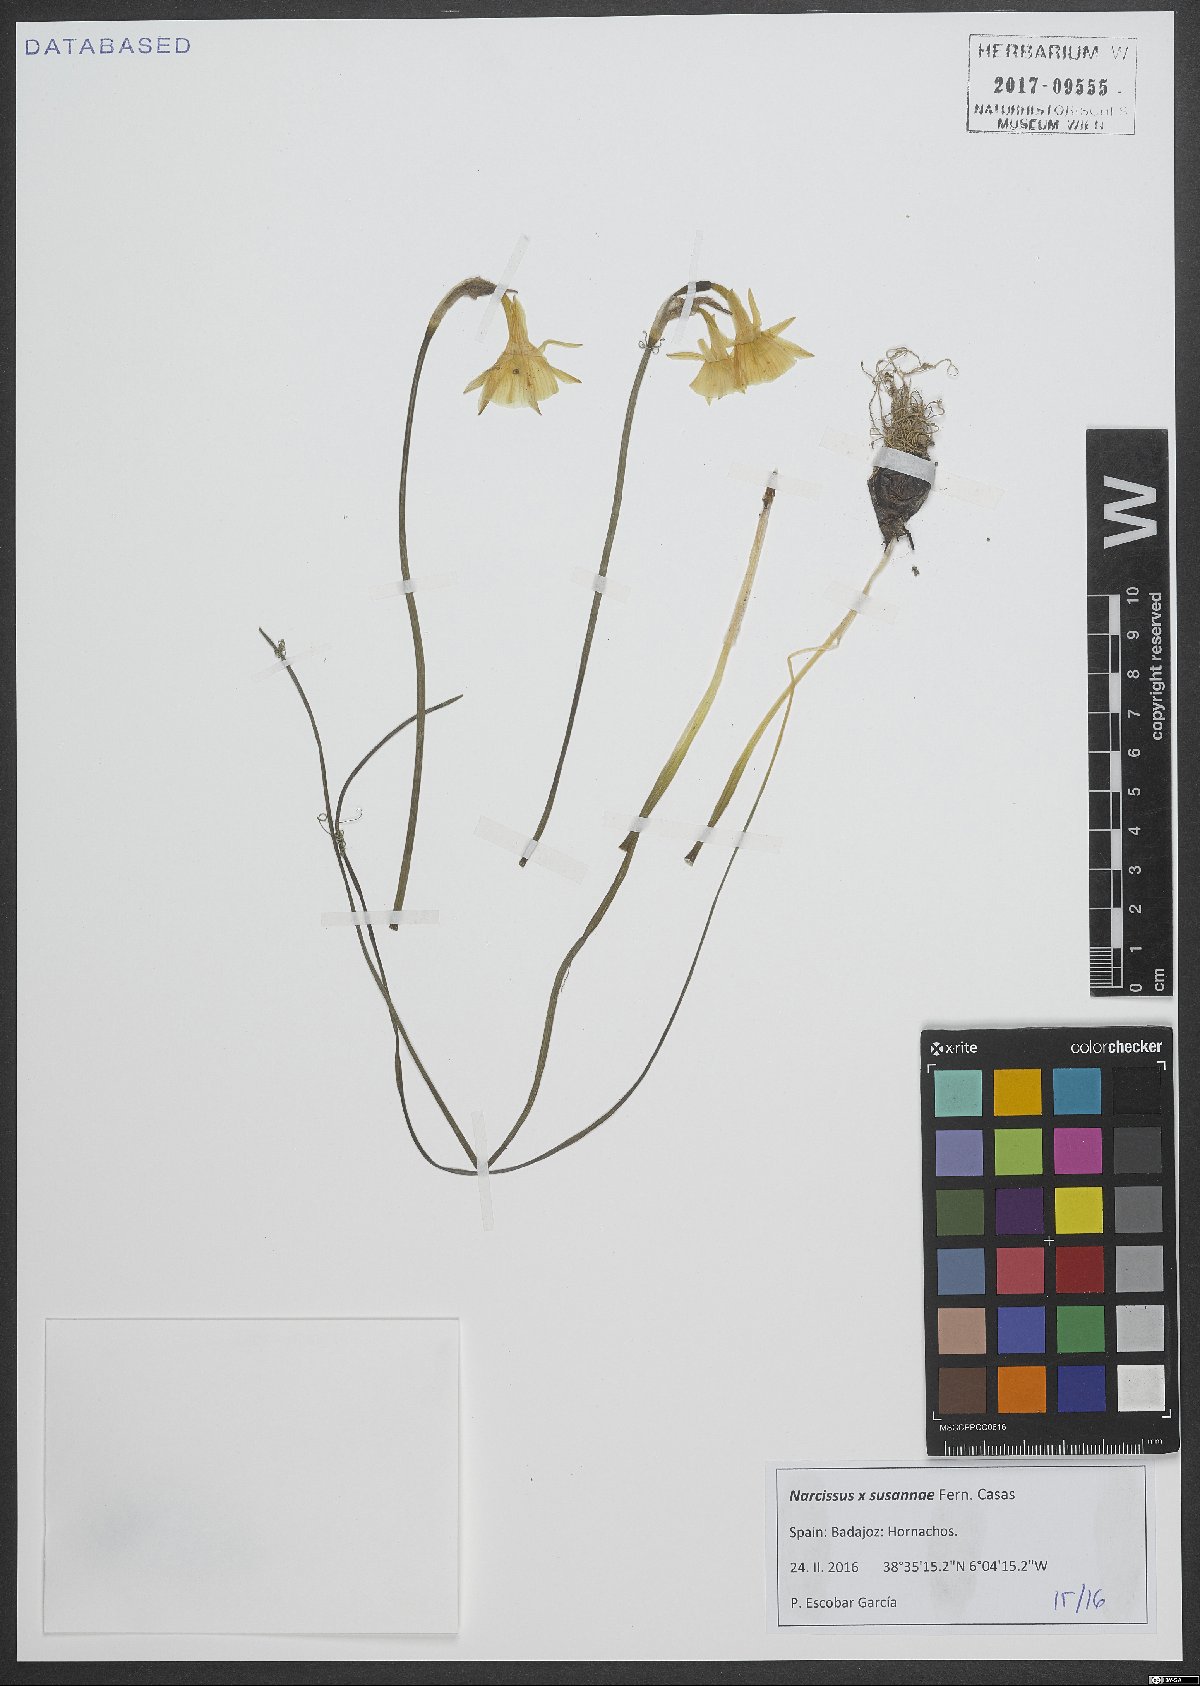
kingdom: Plantae
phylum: Tracheophyta
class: Liliopsida
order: Asparagales
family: Amaryllidaceae
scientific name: Amaryllidaceae
